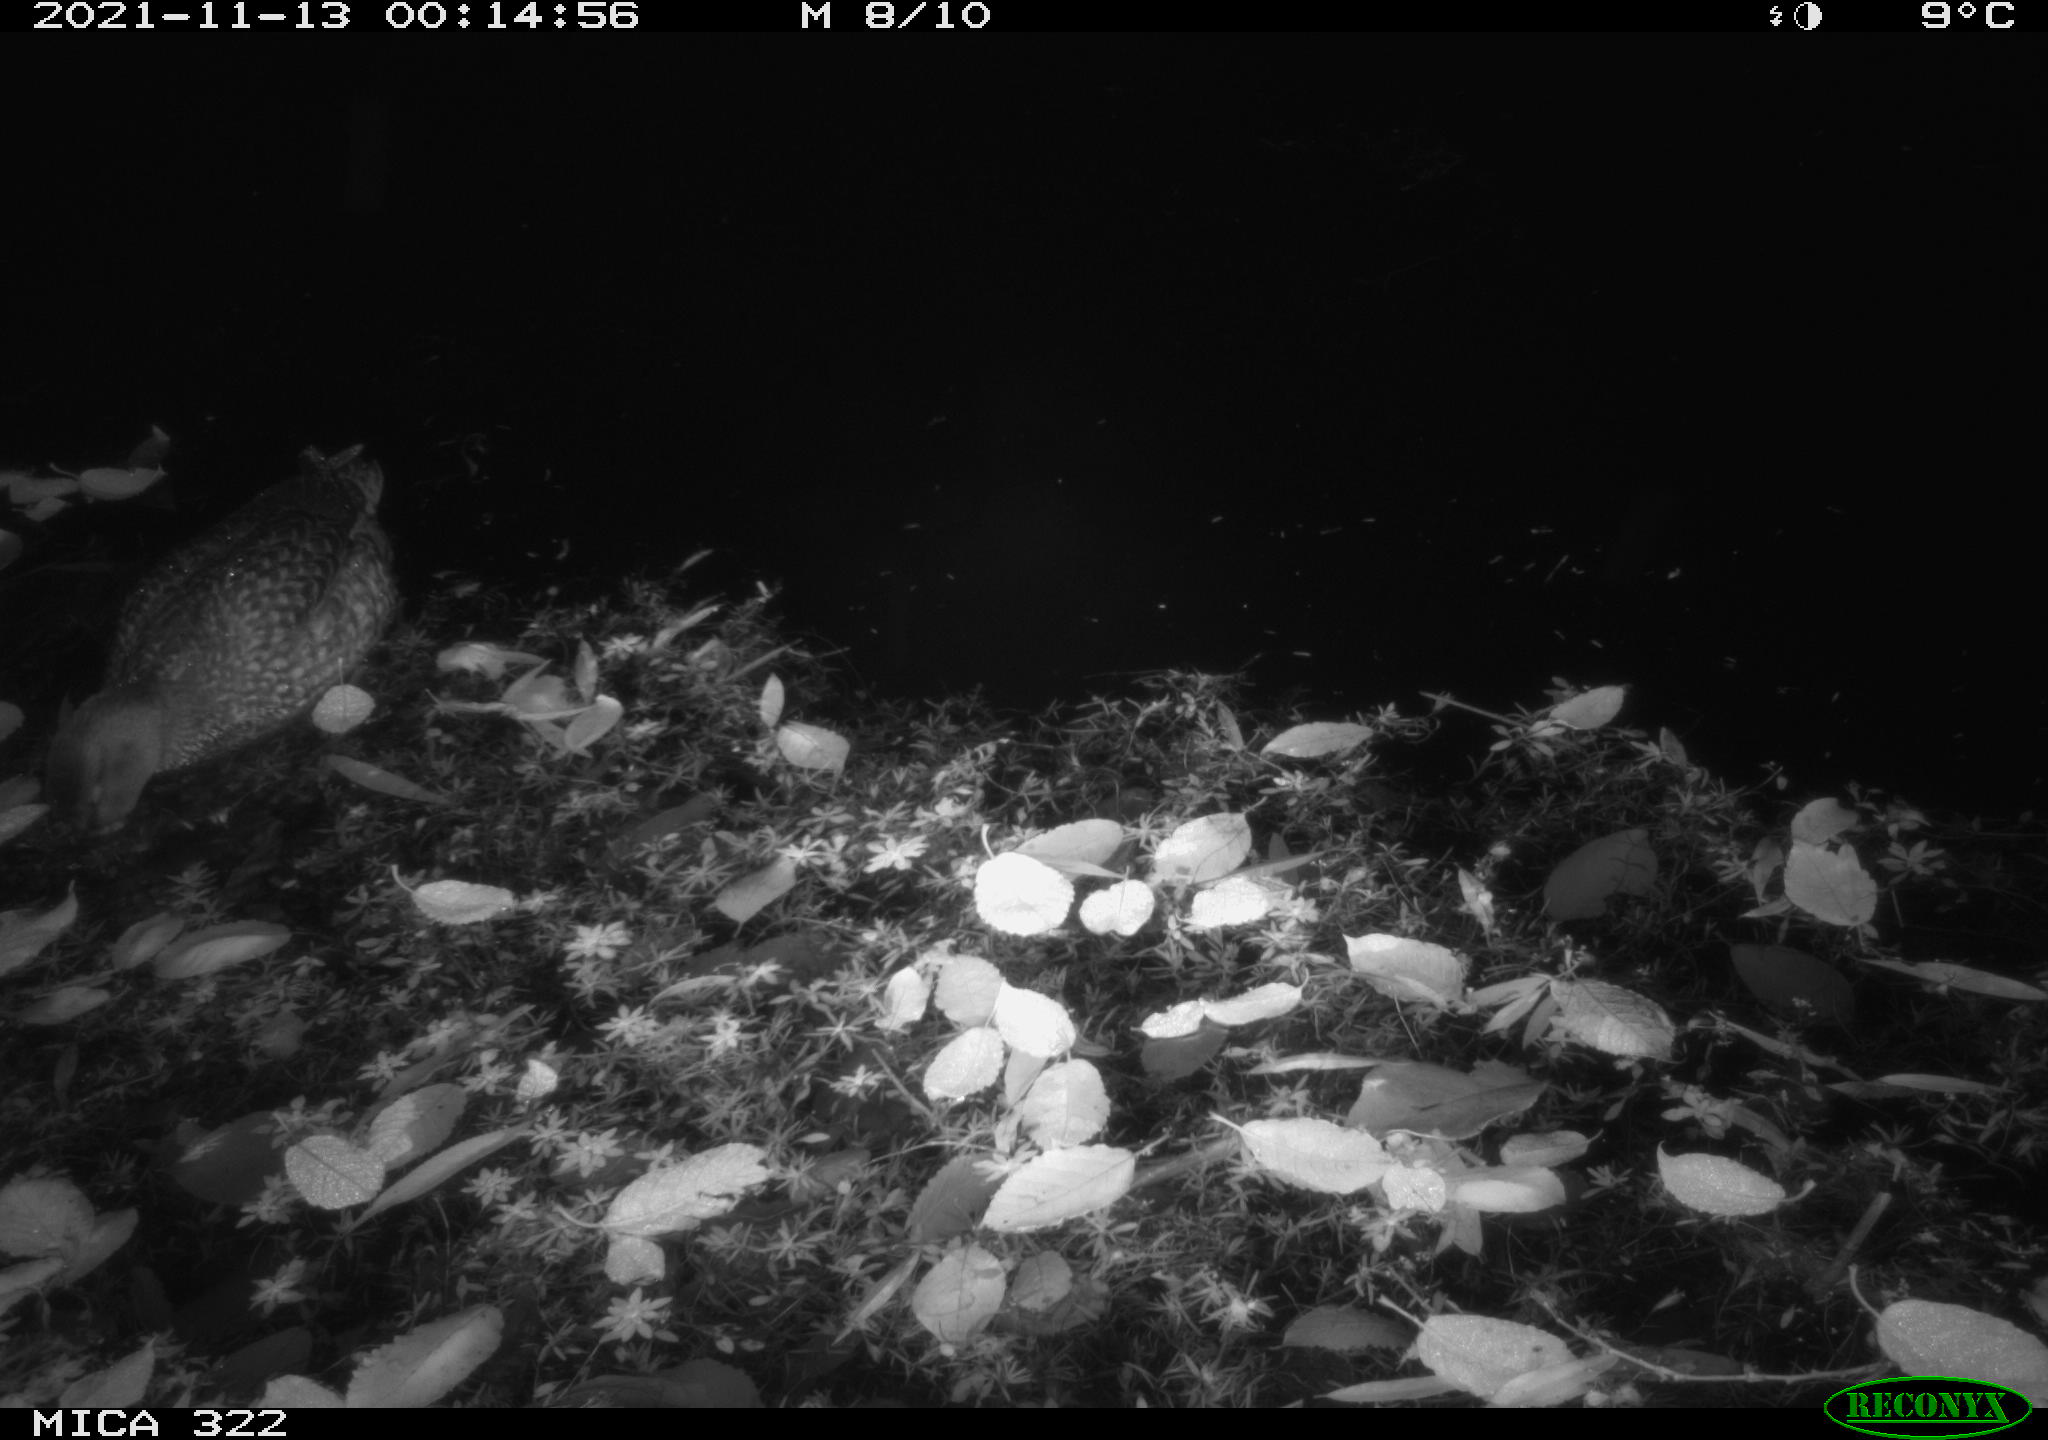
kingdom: Animalia
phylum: Chordata
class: Aves
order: Anseriformes
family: Anatidae
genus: Anas
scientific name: Anas platyrhynchos
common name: Mallard
